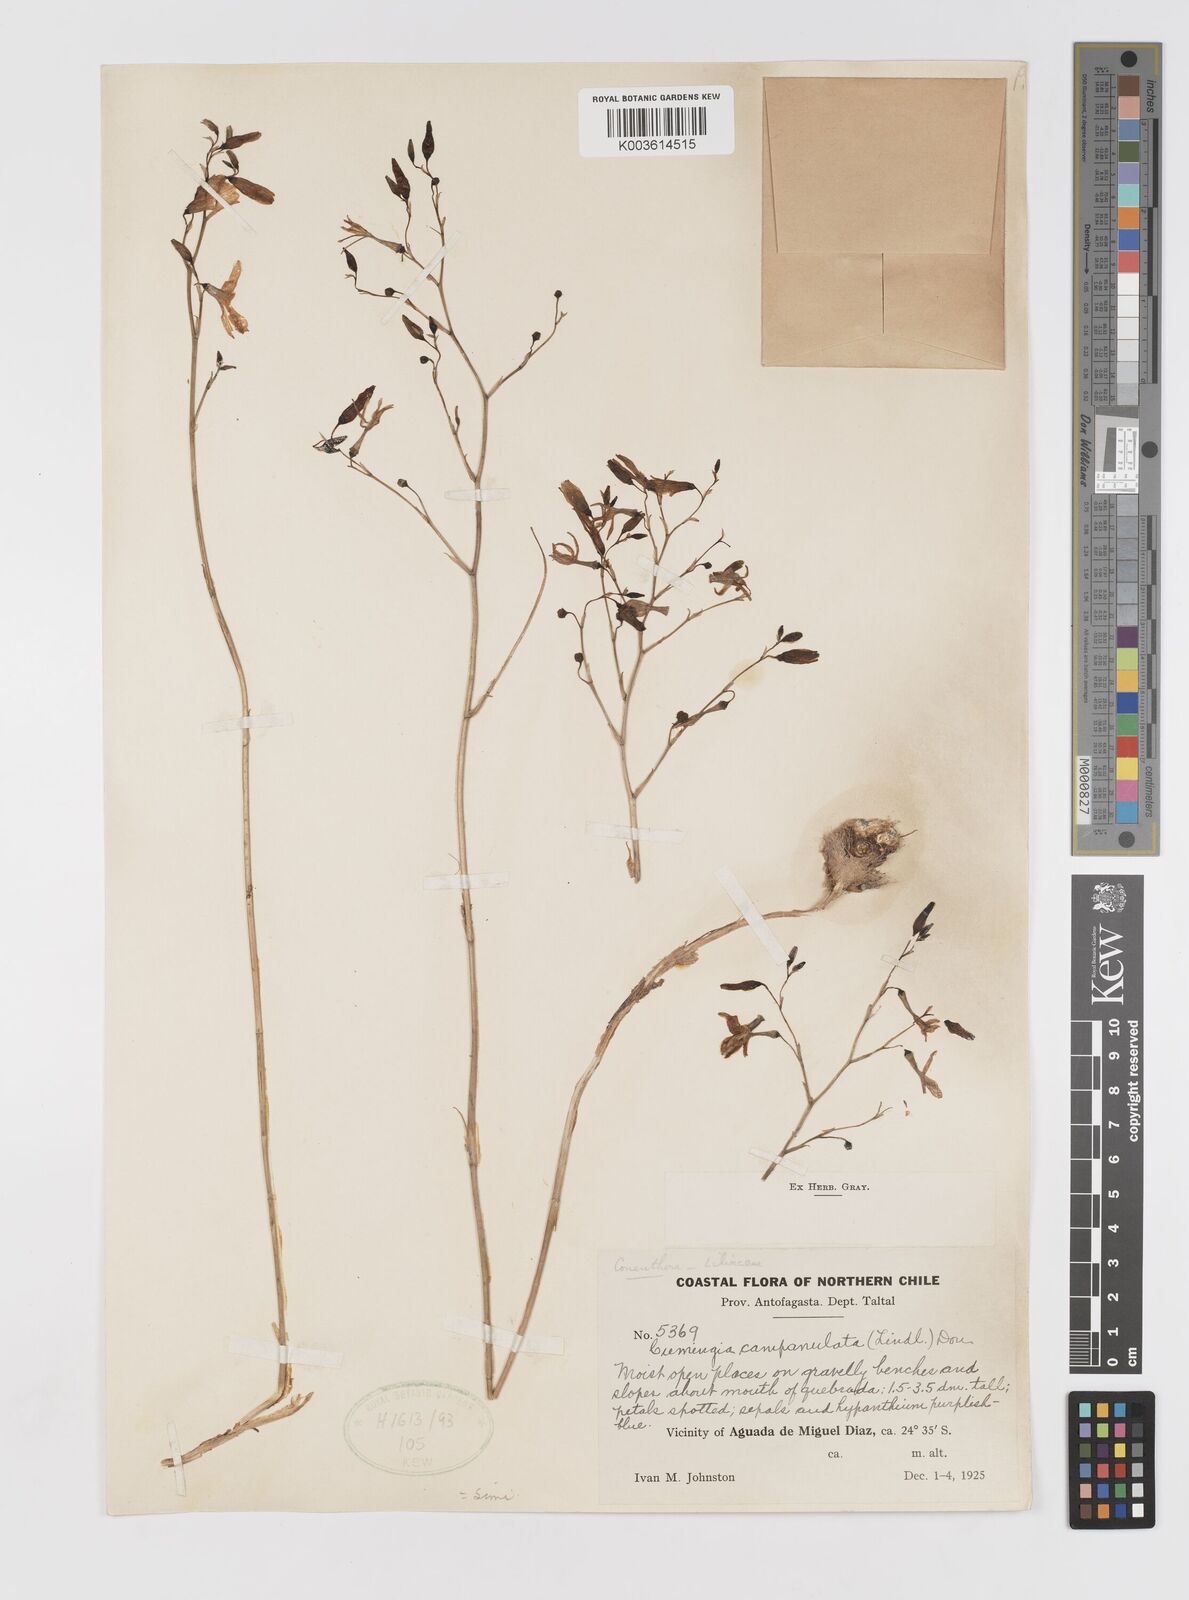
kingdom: Plantae
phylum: Tracheophyta
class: Liliopsida
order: Asparagales
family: Tecophilaeaceae
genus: Conanthera
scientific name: Conanthera campanulata
